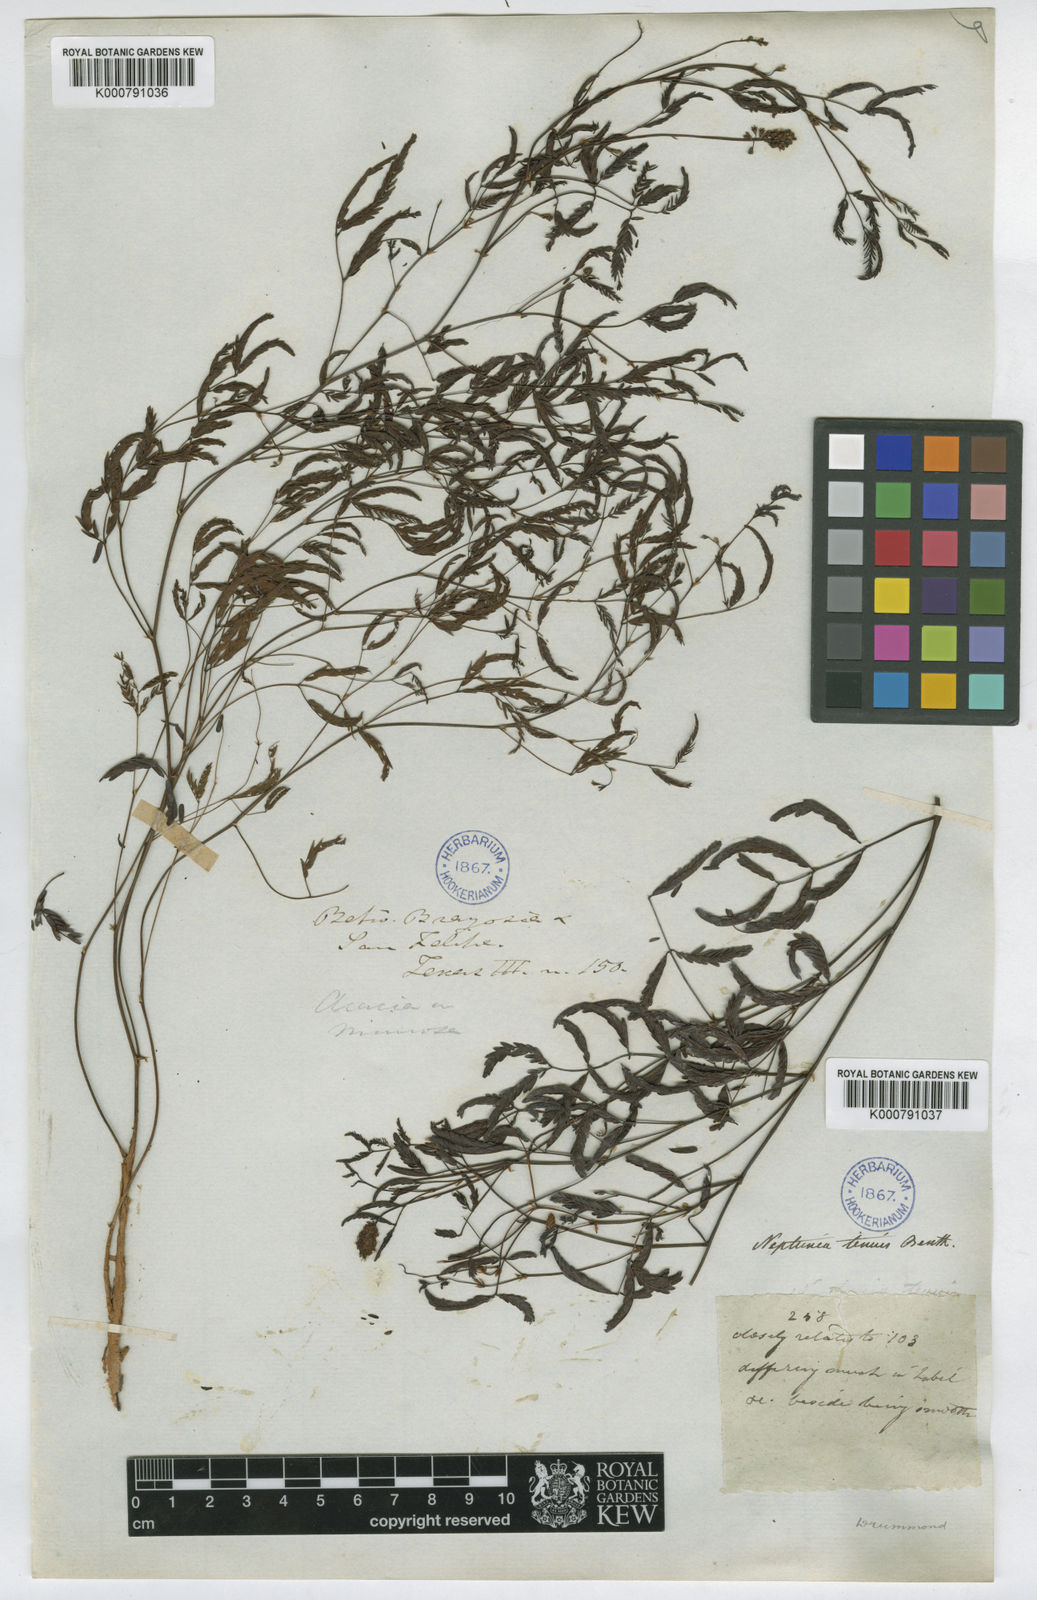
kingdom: Plantae
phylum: Tracheophyta
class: Magnoliopsida
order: Fabales
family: Fabaceae
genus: Neptunia
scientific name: Neptunia lutea
